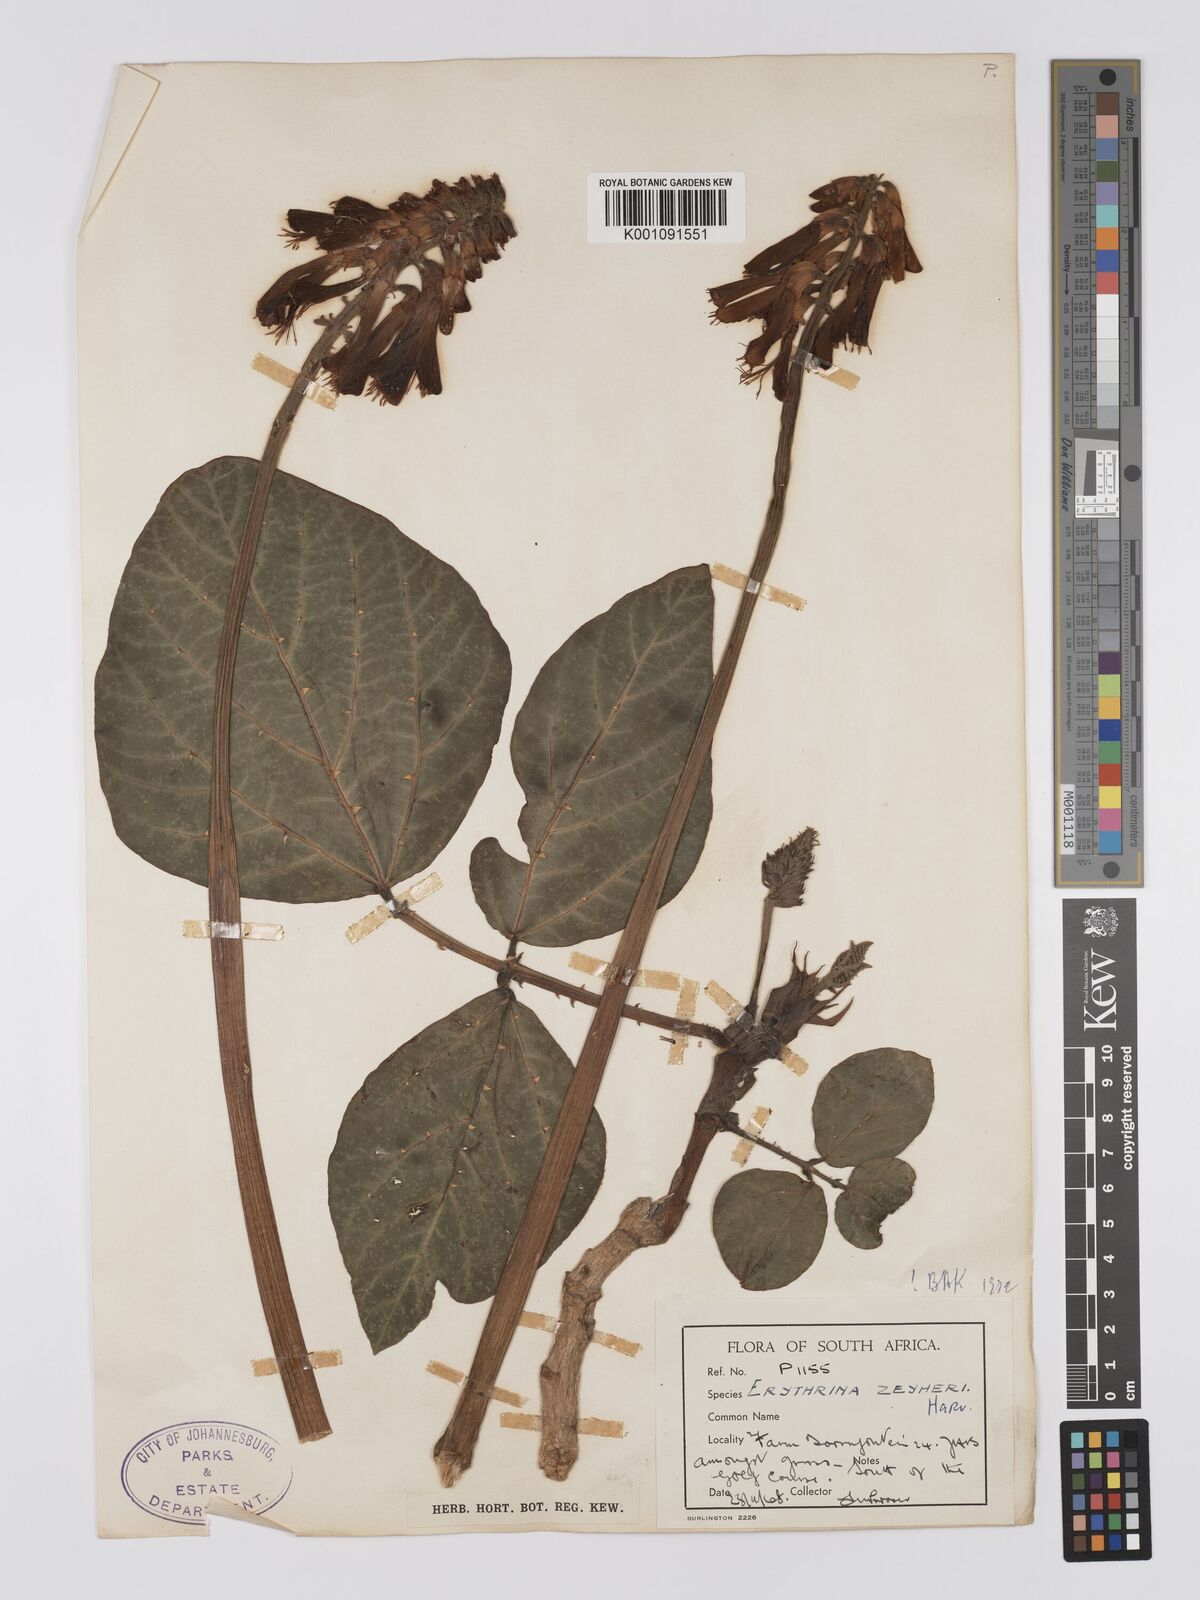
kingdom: Plantae
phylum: Tracheophyta
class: Magnoliopsida
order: Fabales
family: Fabaceae
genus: Erythrina
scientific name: Erythrina zeyheri
